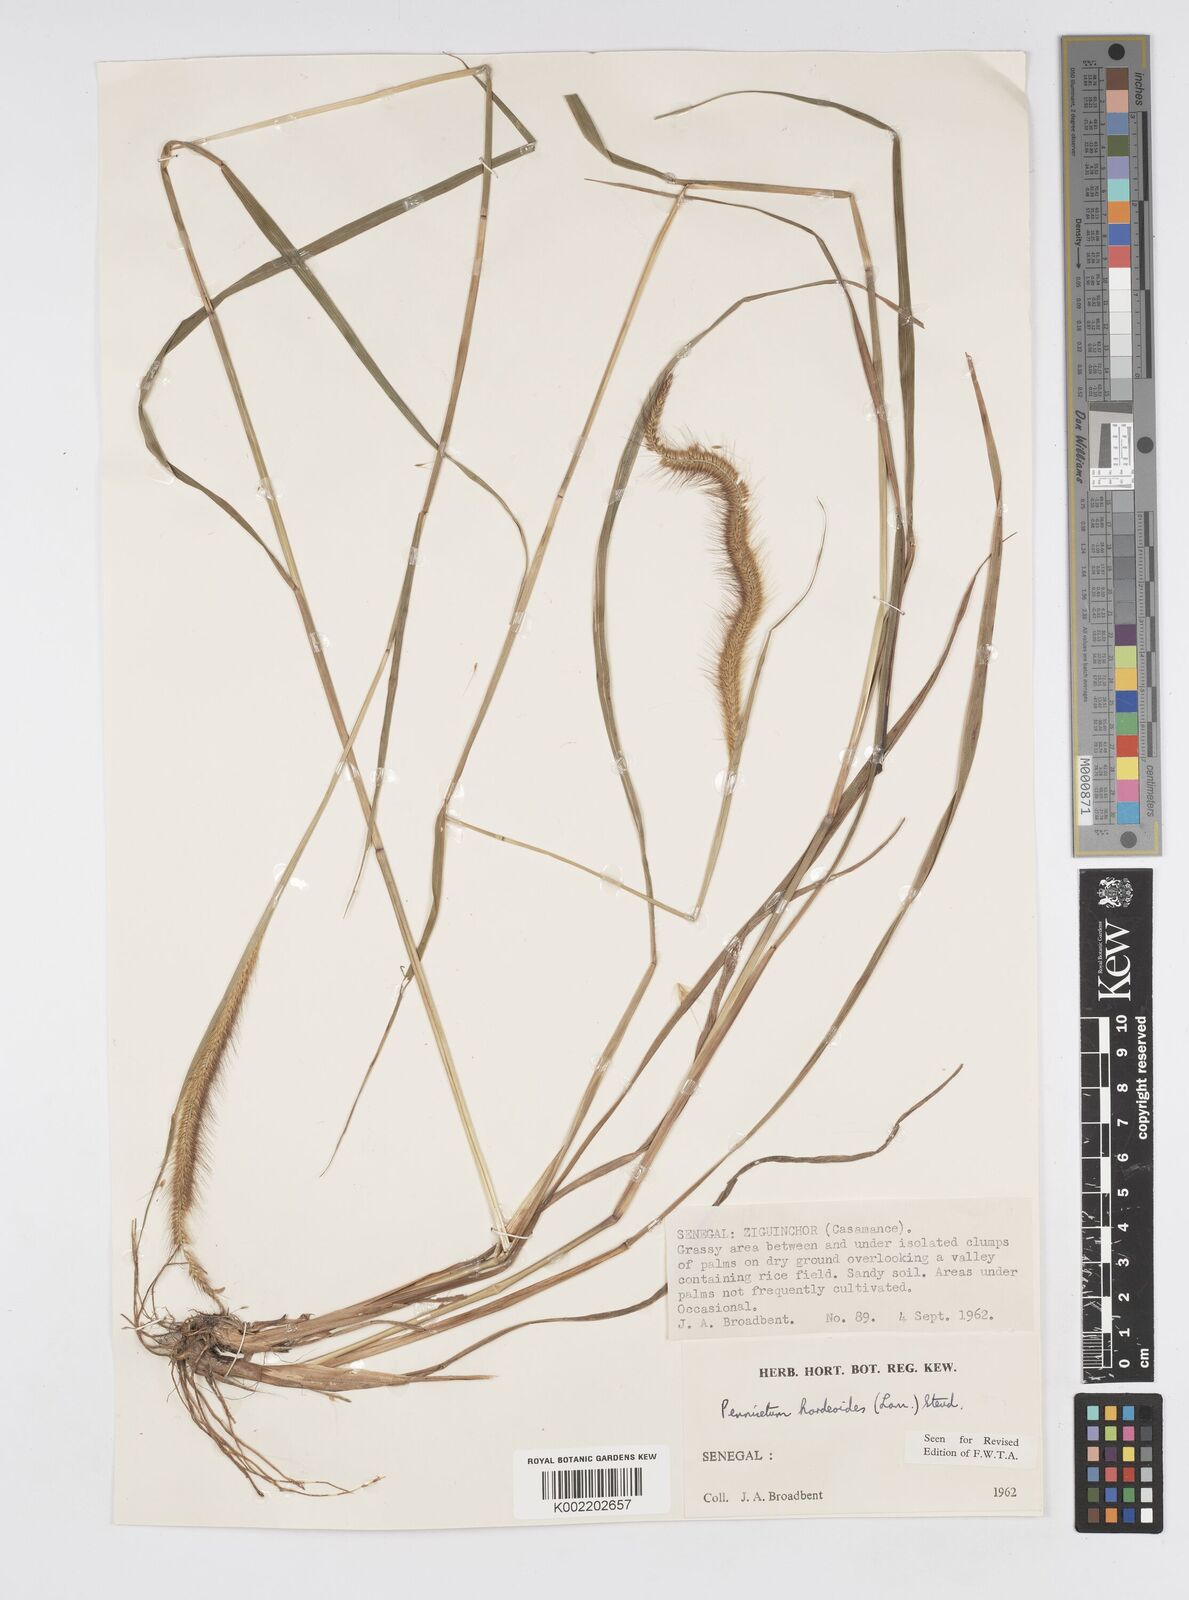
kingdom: Plantae
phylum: Tracheophyta
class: Liliopsida
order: Poales
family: Poaceae
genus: Cenchrus
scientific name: Cenchrus hordeoides
